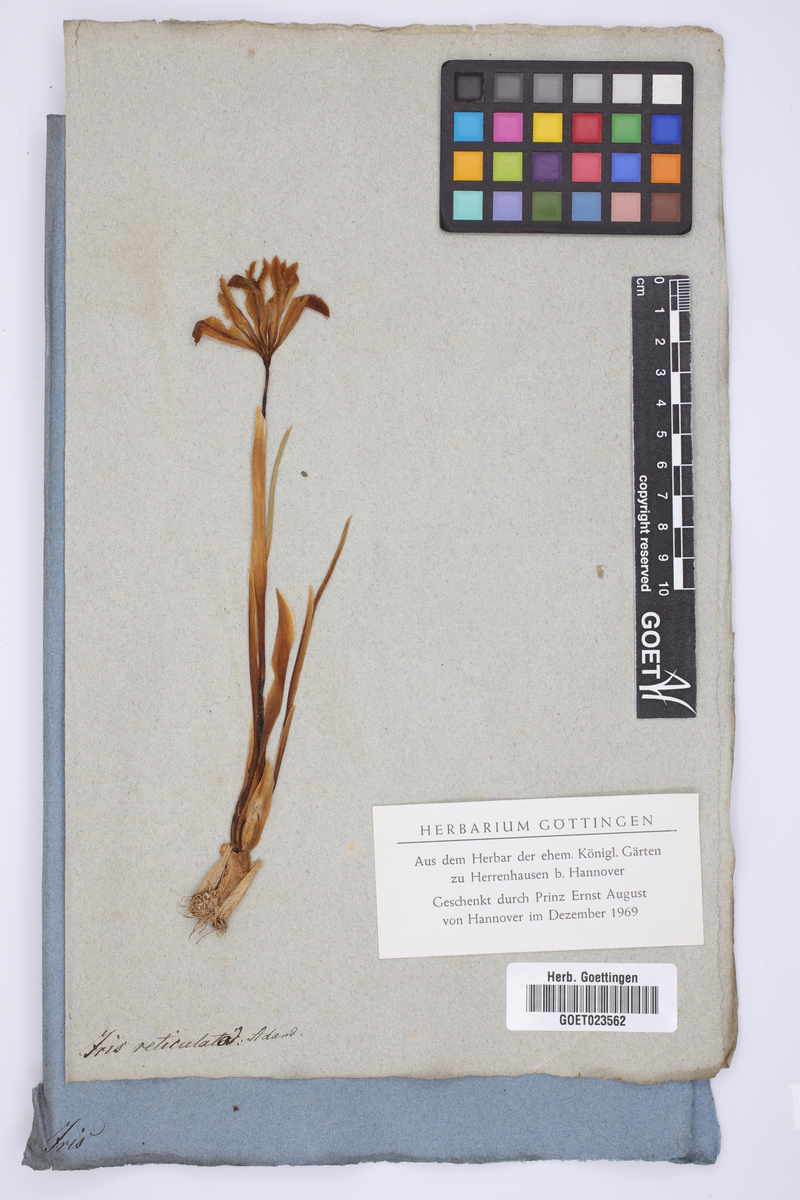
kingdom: Plantae
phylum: Tracheophyta
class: Liliopsida
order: Asparagales
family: Iridaceae
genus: Iris
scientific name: Iris reticulata
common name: Netted iris
